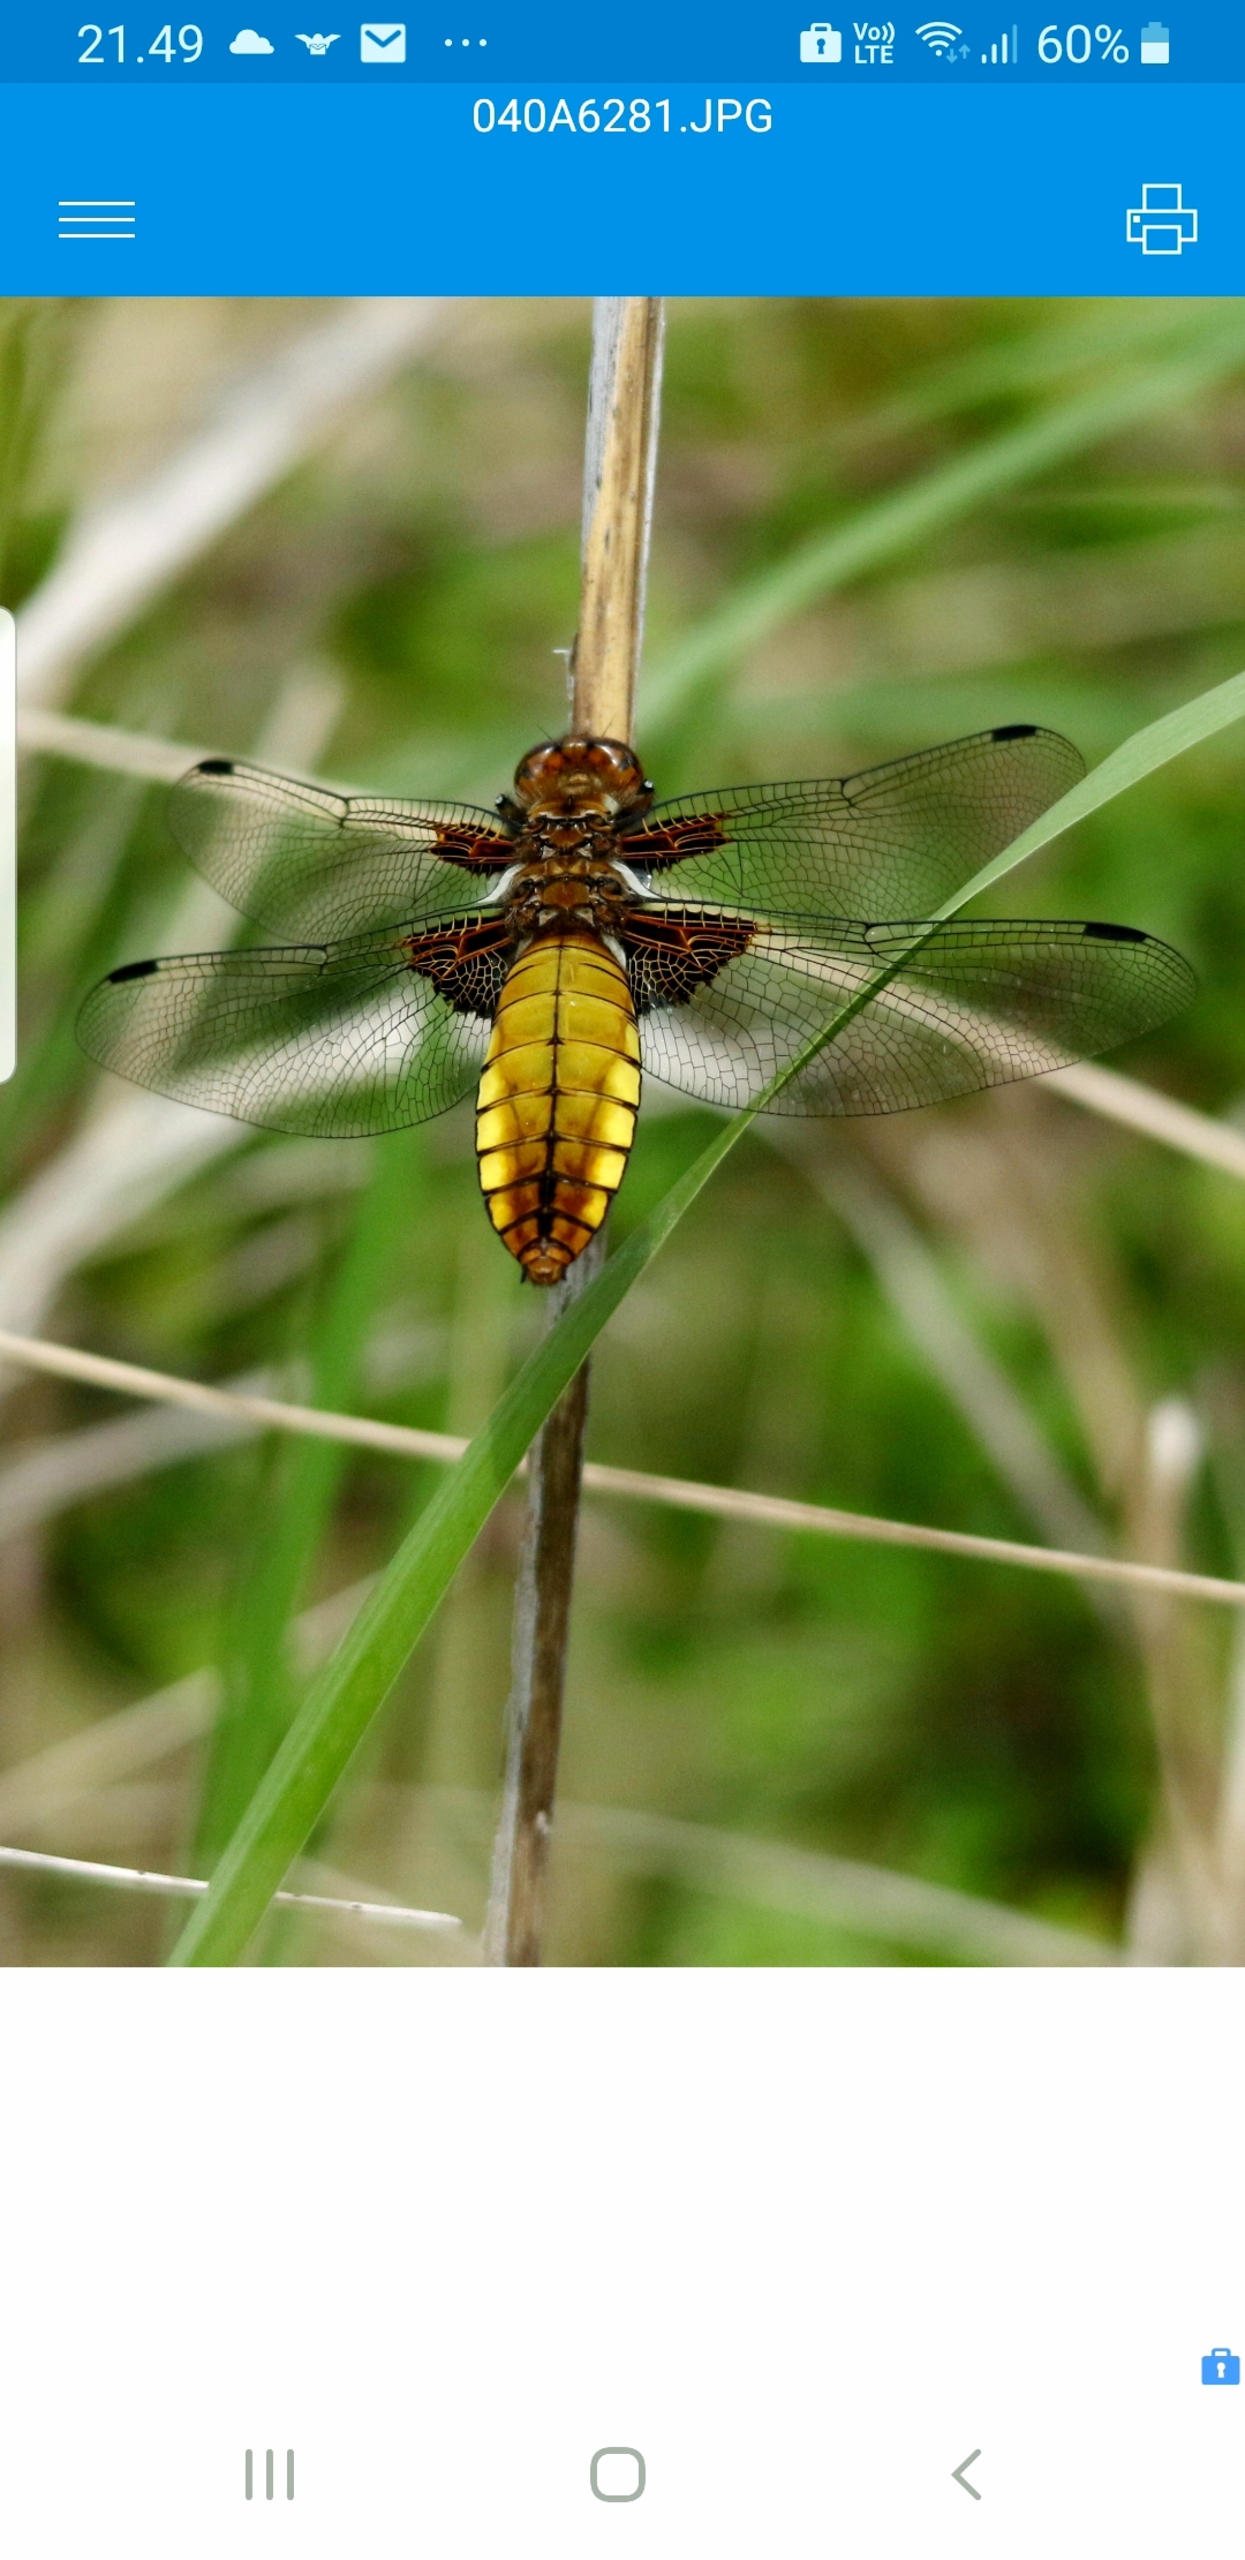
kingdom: Animalia
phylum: Arthropoda
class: Insecta
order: Odonata
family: Libellulidae
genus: Libellula
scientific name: Libellula depressa
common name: Blå libel
